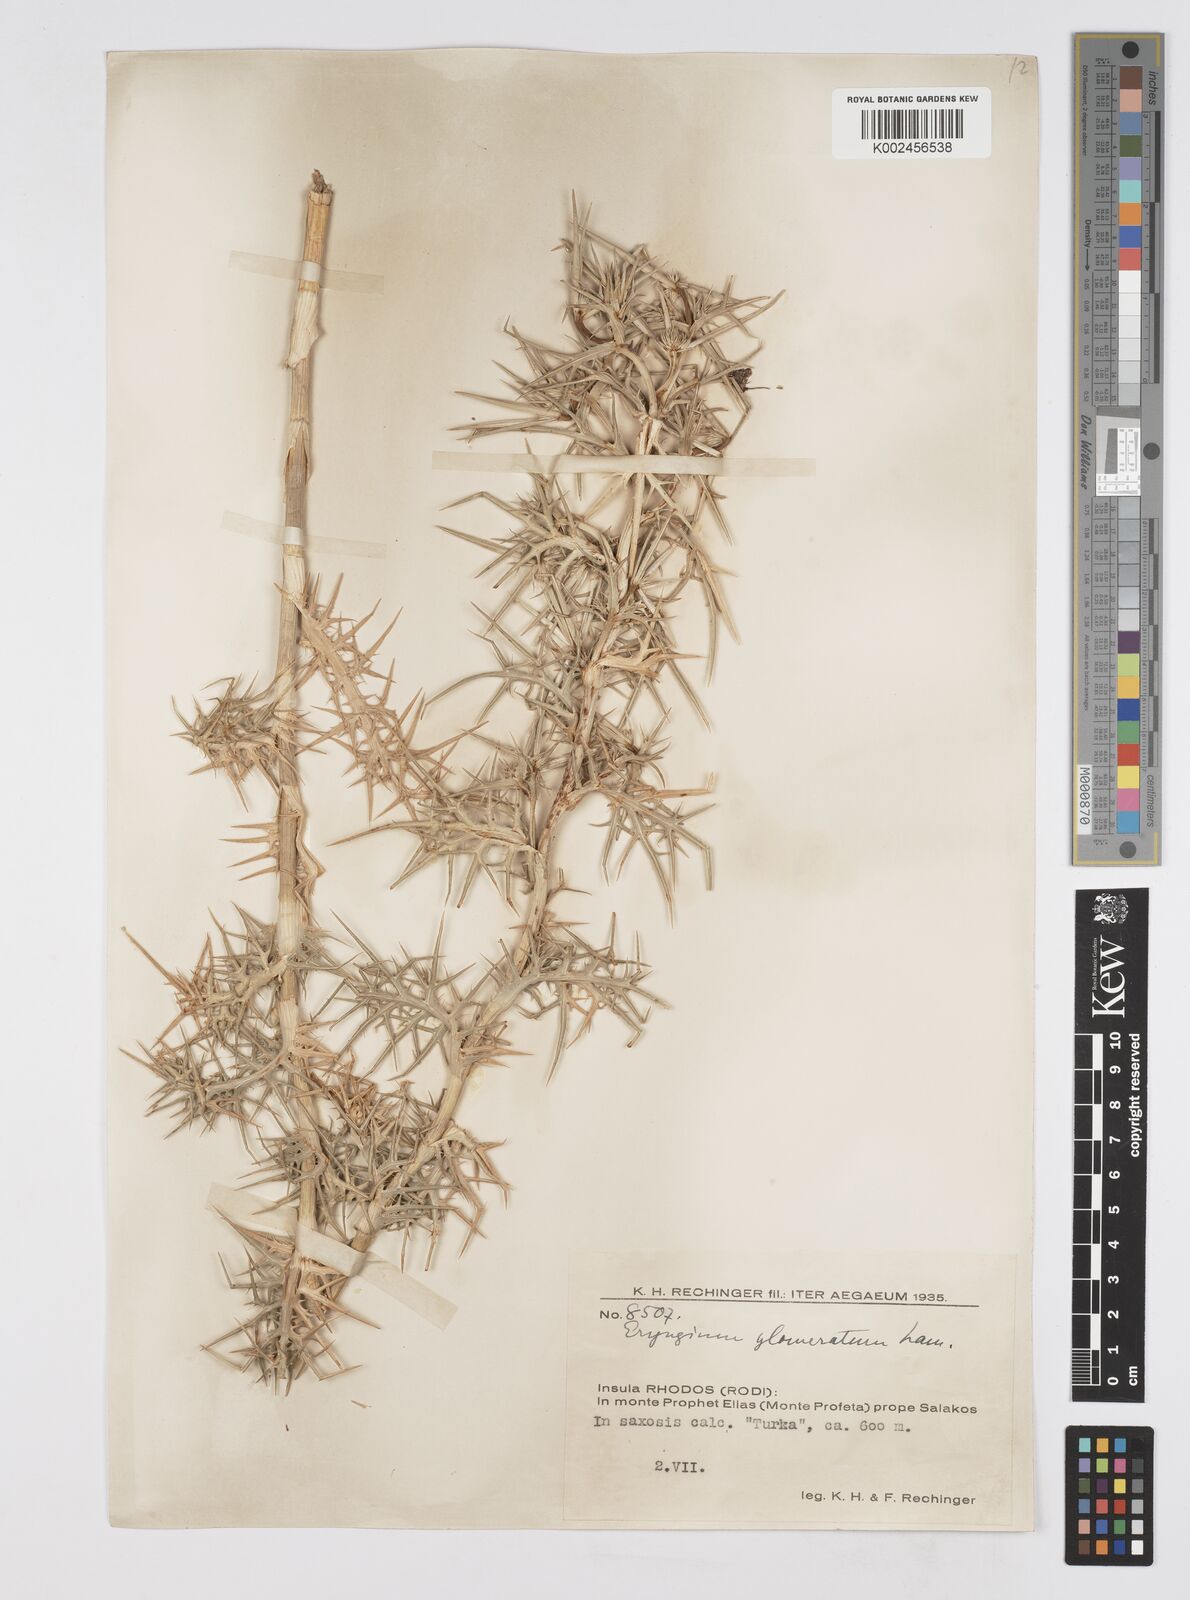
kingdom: Plantae
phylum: Tracheophyta
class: Magnoliopsida
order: Apiales
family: Apiaceae
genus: Eryngium
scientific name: Eryngium glomeratum
